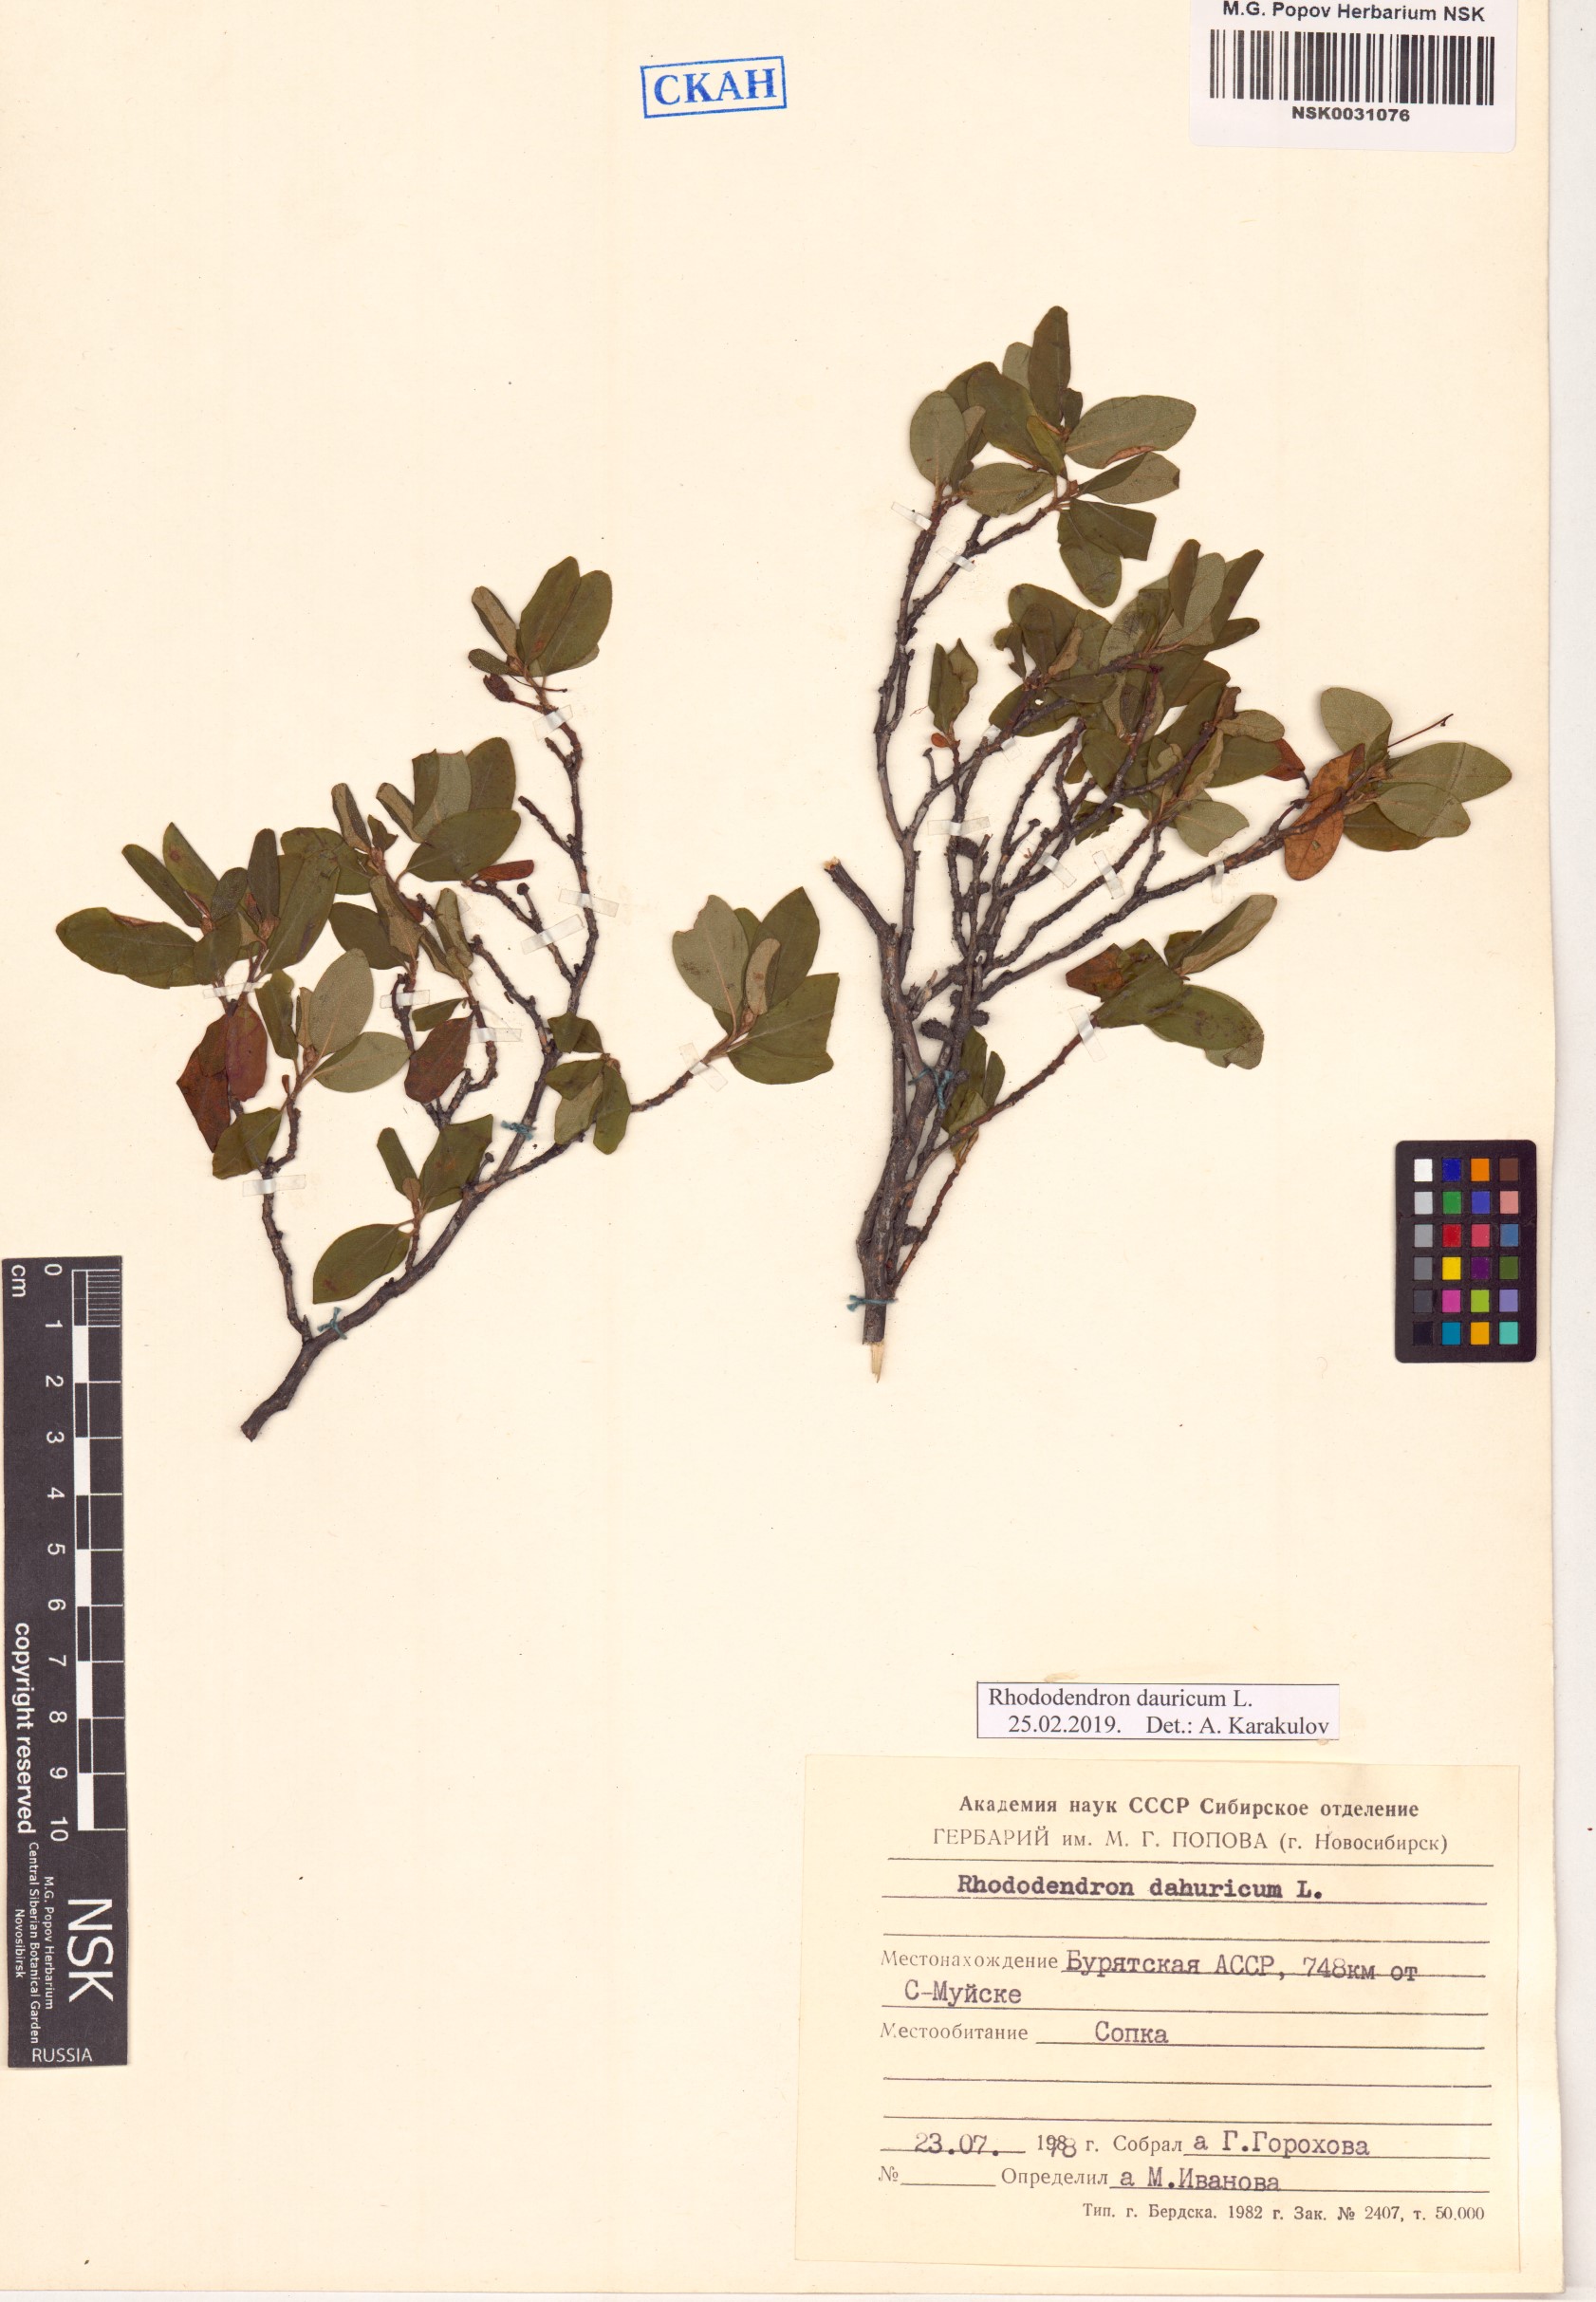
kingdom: Plantae
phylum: Tracheophyta
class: Magnoliopsida
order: Ericales
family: Ericaceae
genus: Rhododendron
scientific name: Rhododendron dauricum
